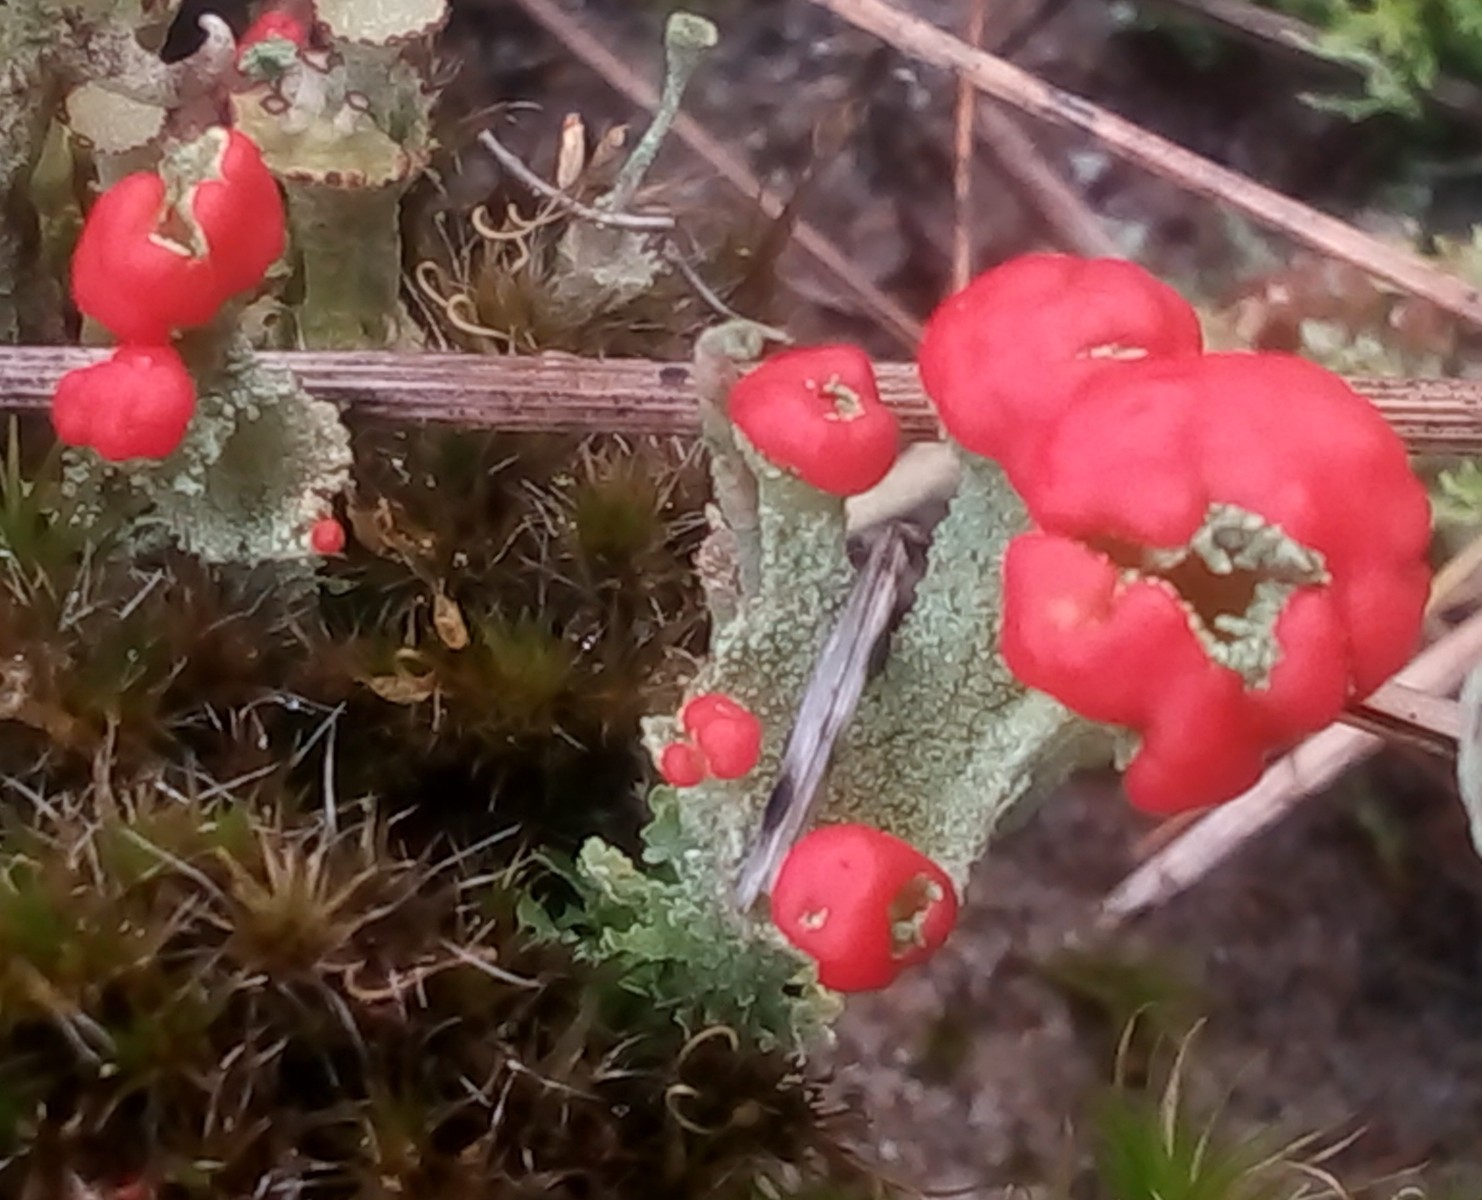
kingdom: Fungi
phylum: Ascomycota
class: Lecanoromycetes
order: Lecanorales
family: Cladoniaceae
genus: Cladonia
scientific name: Cladonia diversa
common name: rød bægerlav
